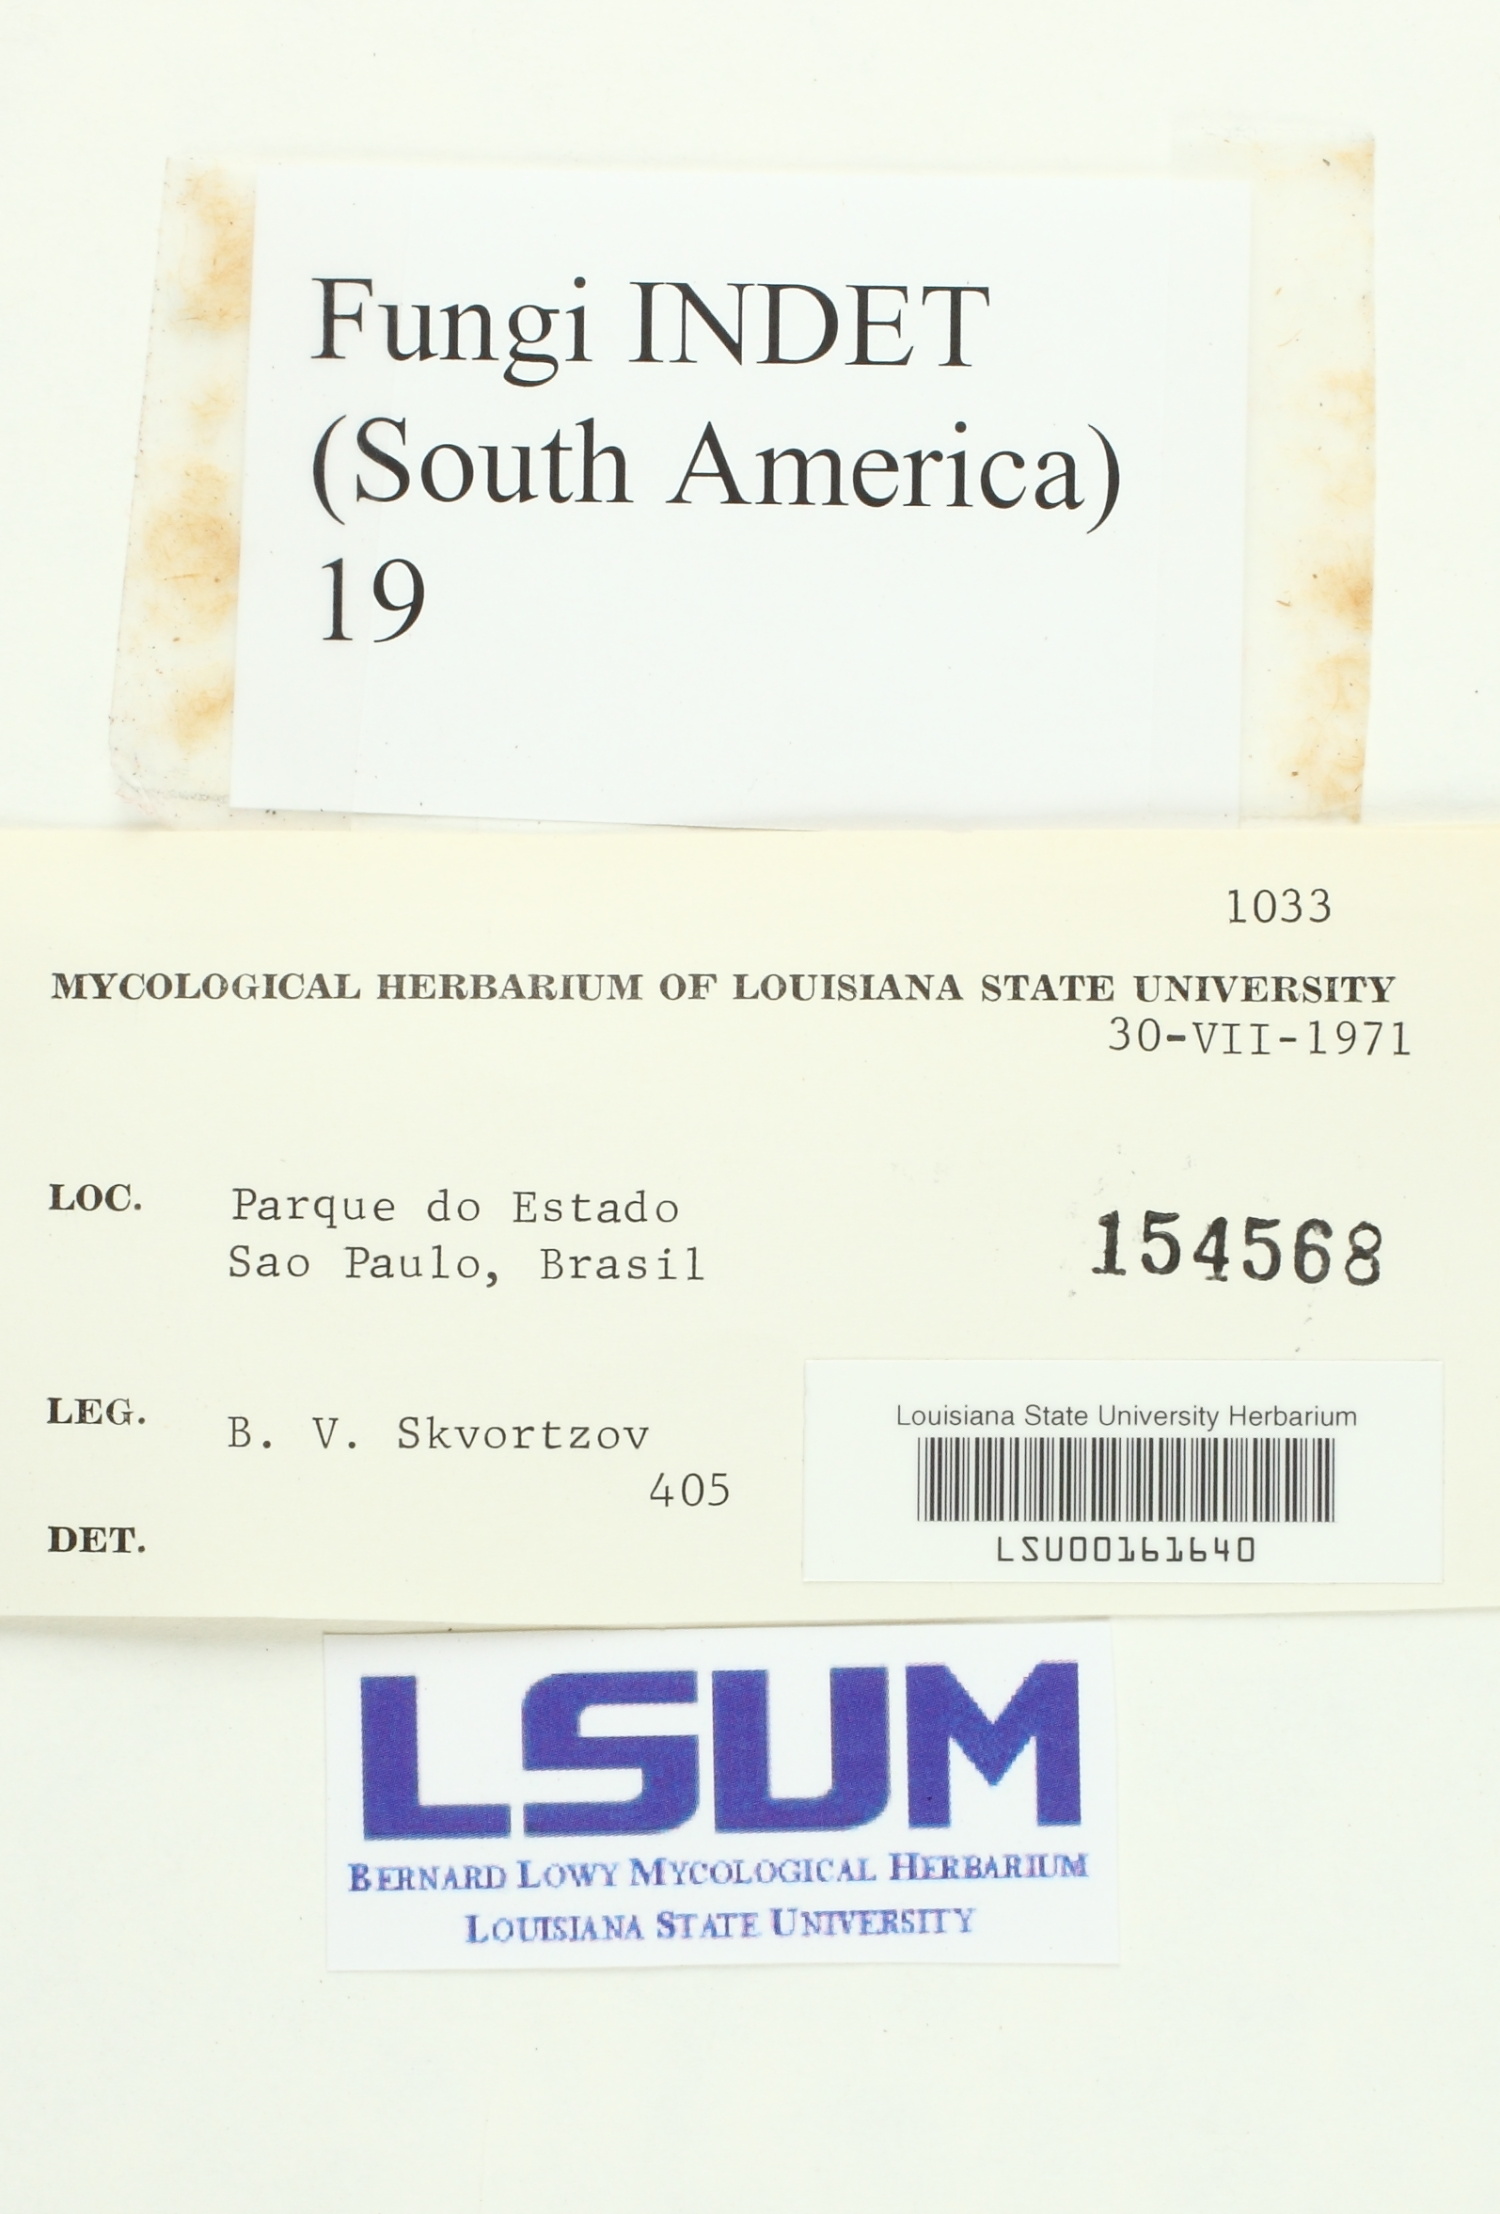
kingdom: Fungi
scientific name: Fungi
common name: Fungi
